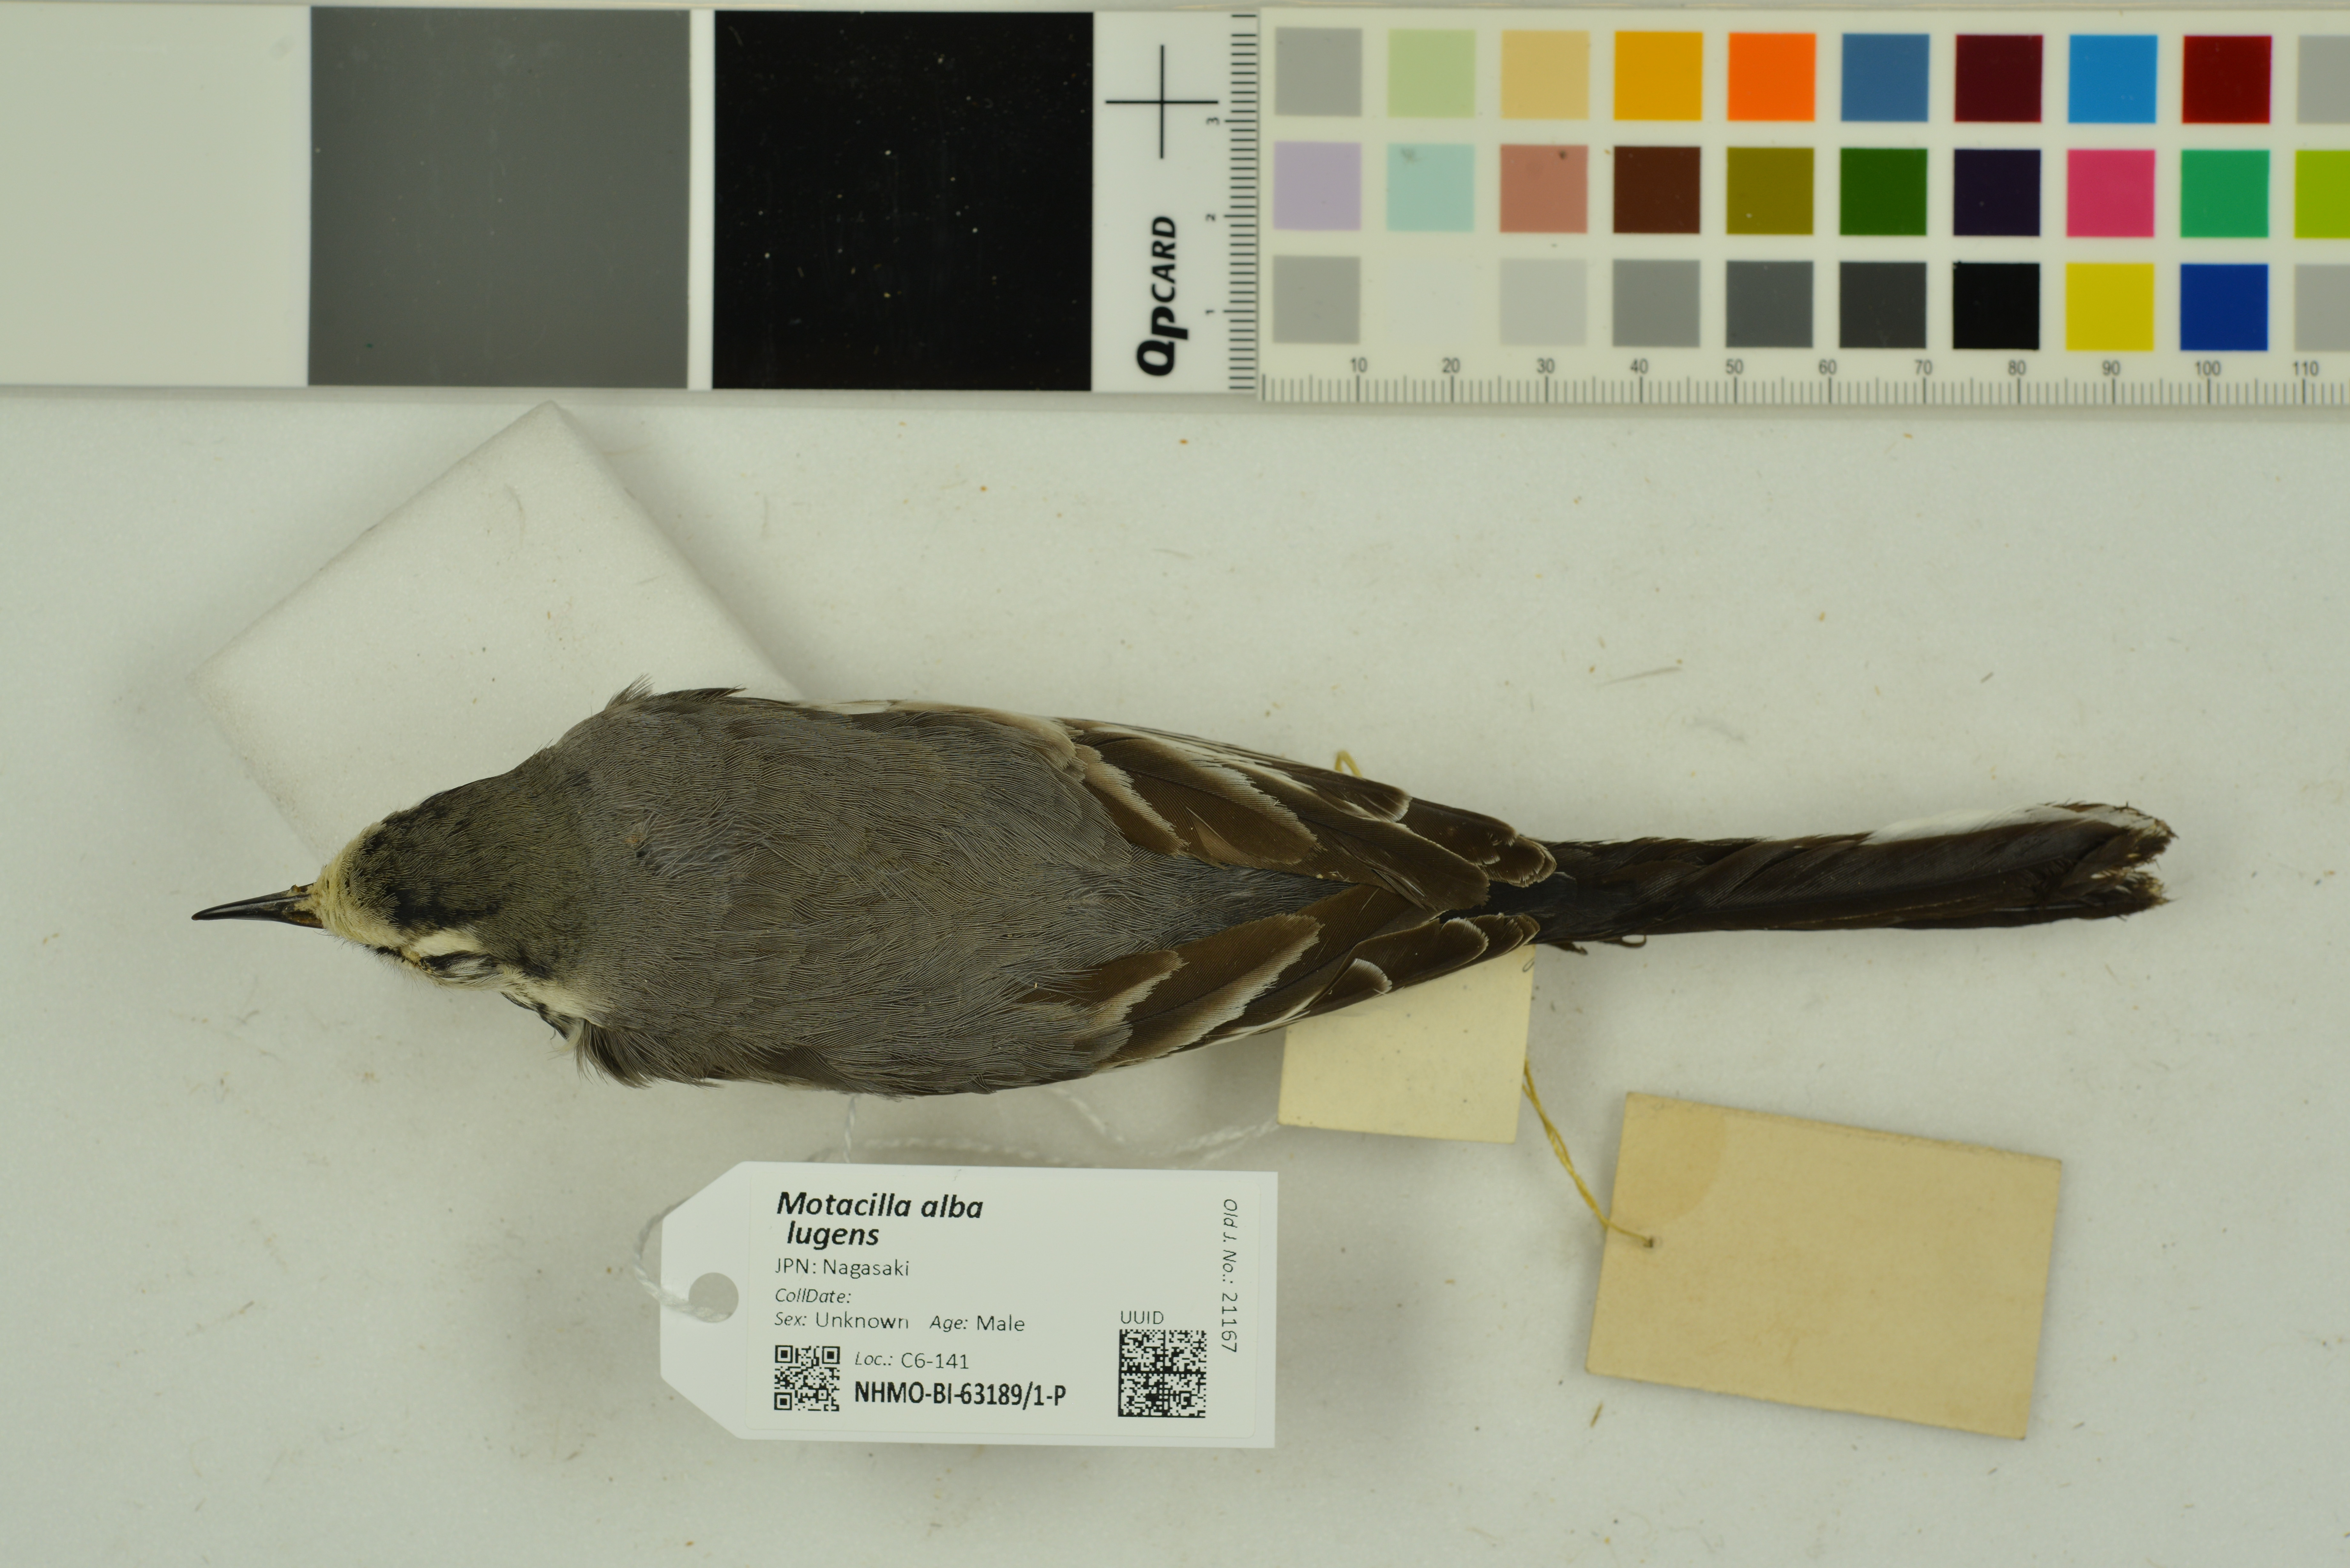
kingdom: Animalia
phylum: Chordata
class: Aves
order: Passeriformes
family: Motacillidae
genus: Motacilla
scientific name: Motacilla alba
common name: White wagtail
